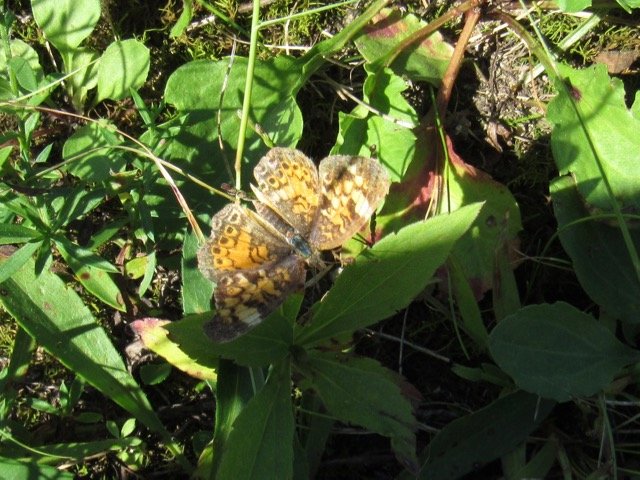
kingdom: Animalia
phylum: Arthropoda
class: Insecta
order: Lepidoptera
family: Nymphalidae
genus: Phyciodes
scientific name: Phyciodes tharos
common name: Pearl Crescent
